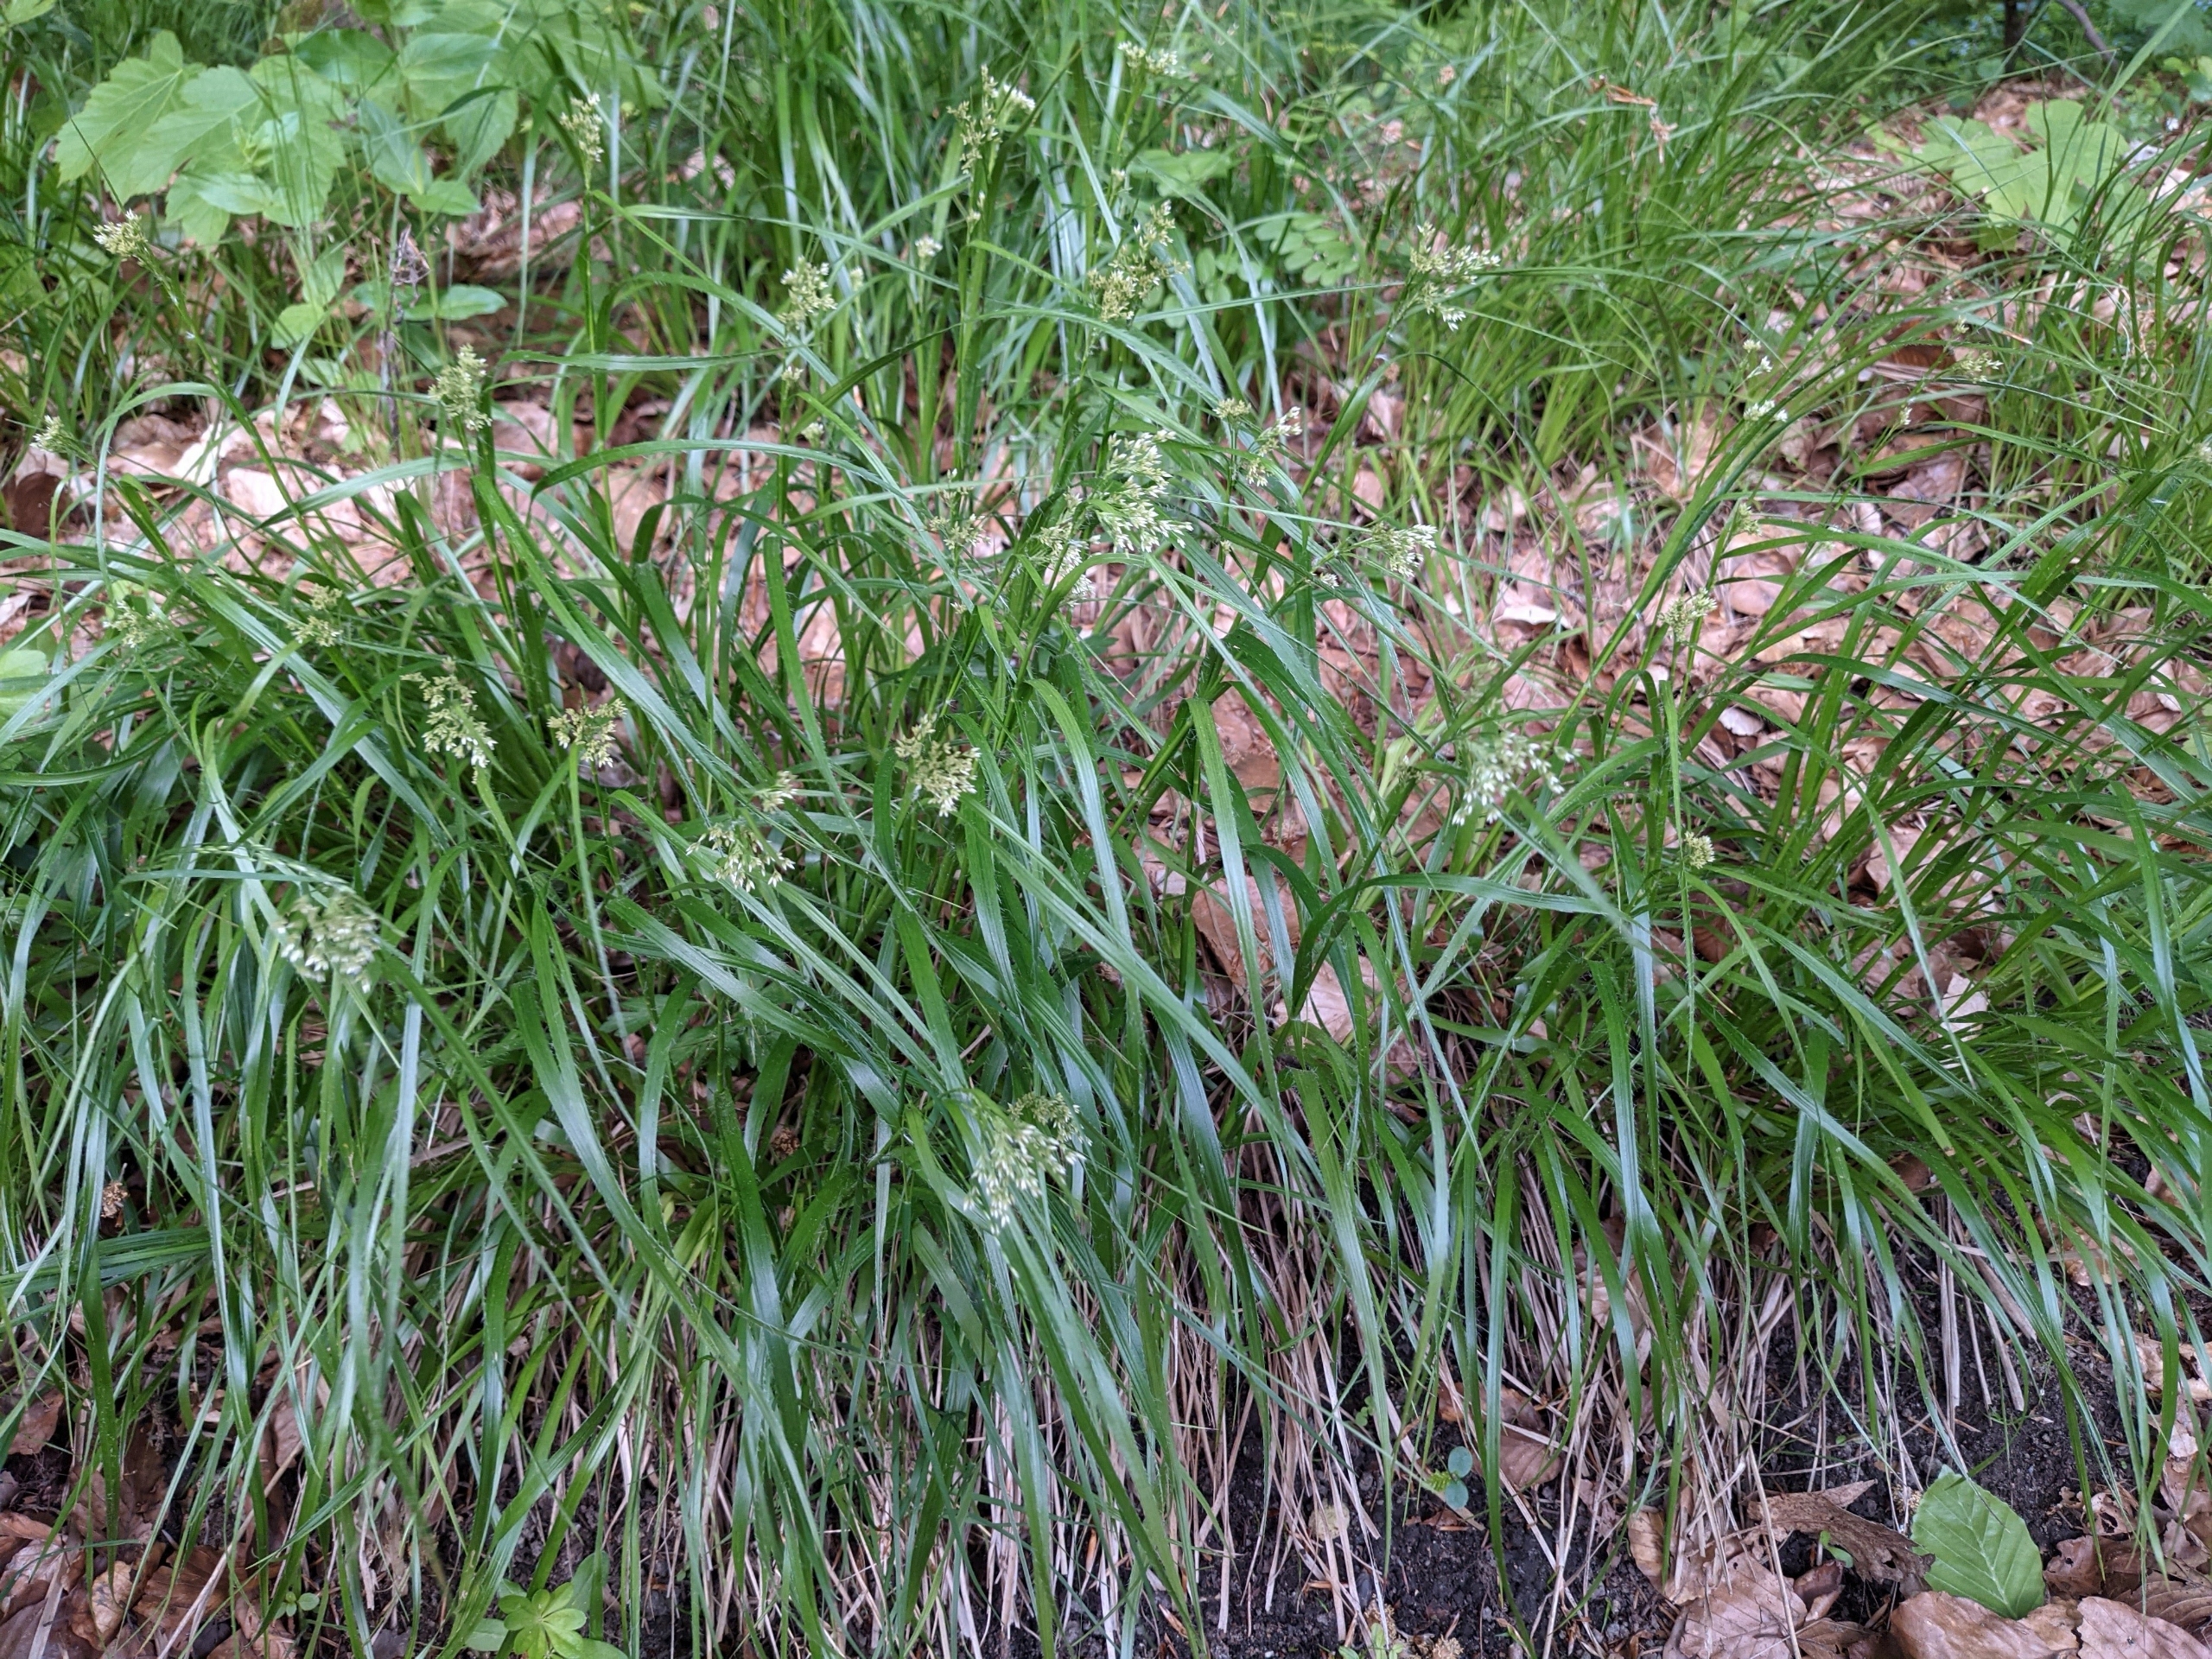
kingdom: Plantae
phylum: Tracheophyta
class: Liliopsida
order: Poales
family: Juncaceae
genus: Luzula
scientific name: Luzula luzuloides
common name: Bleg frytle
